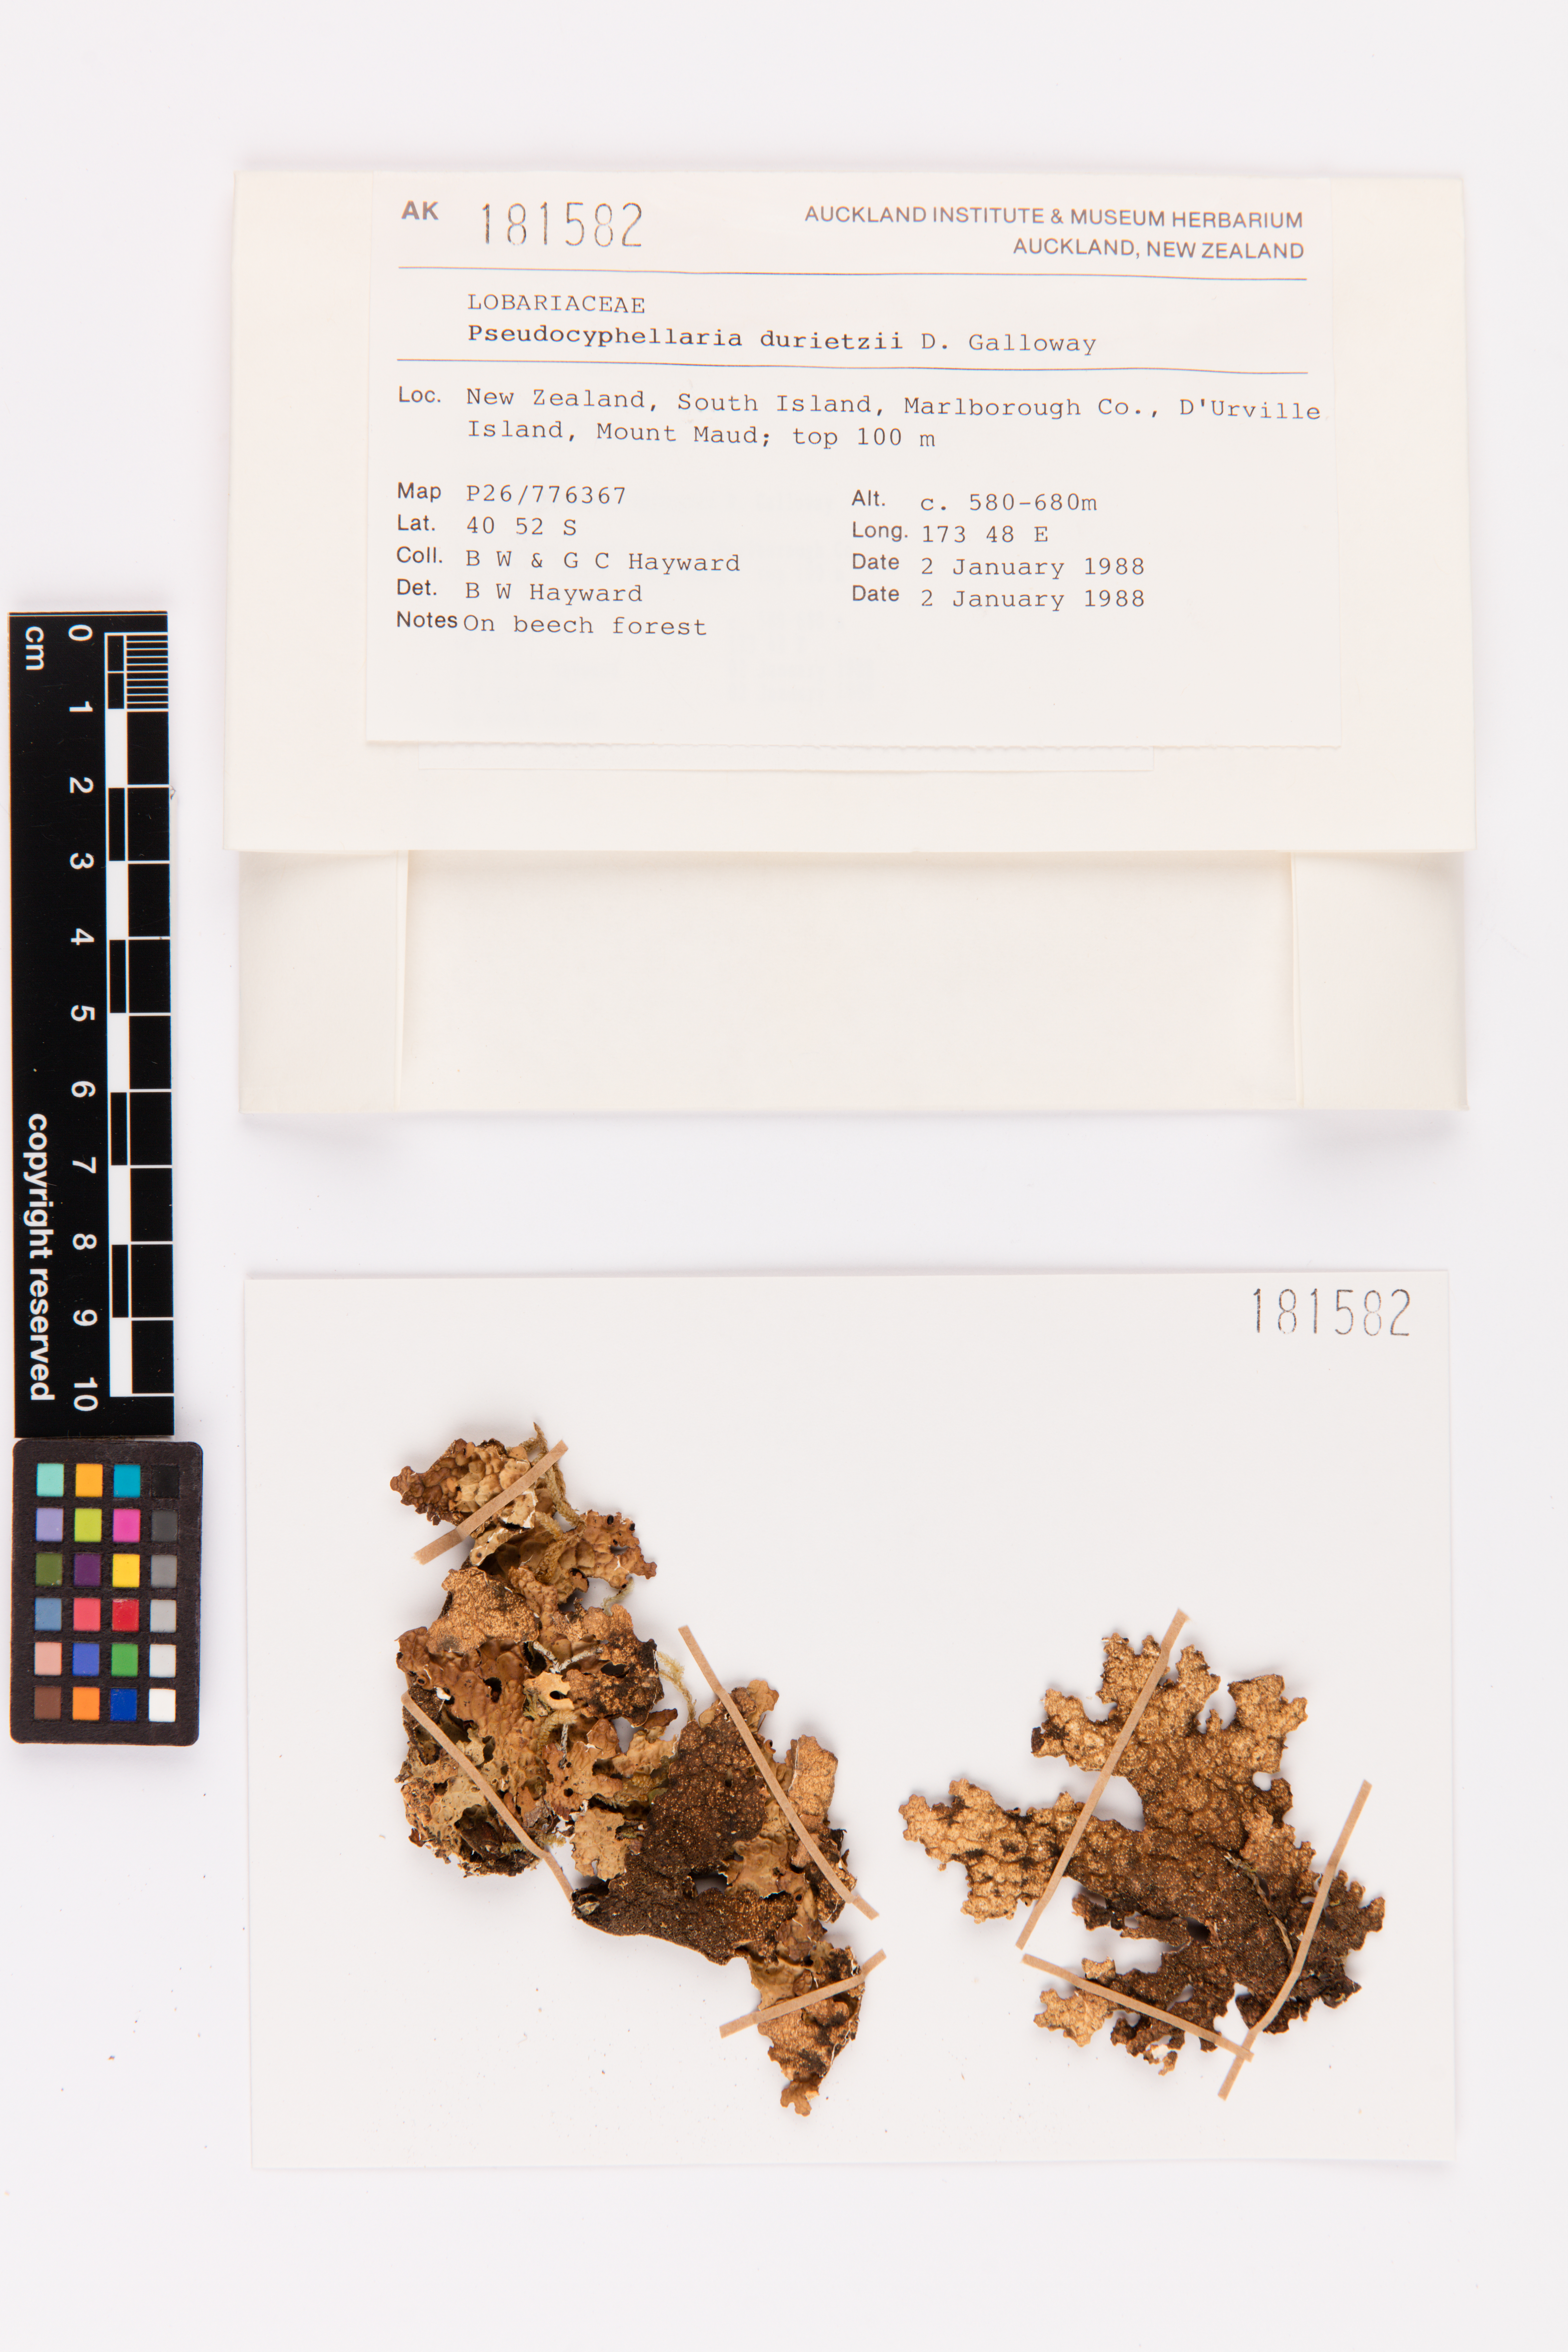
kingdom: Fungi
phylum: Ascomycota
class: Lecanoromycetes
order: Peltigerales
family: Lobariaceae
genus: Pseudocyphellaria
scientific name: Pseudocyphellaria durietzii
